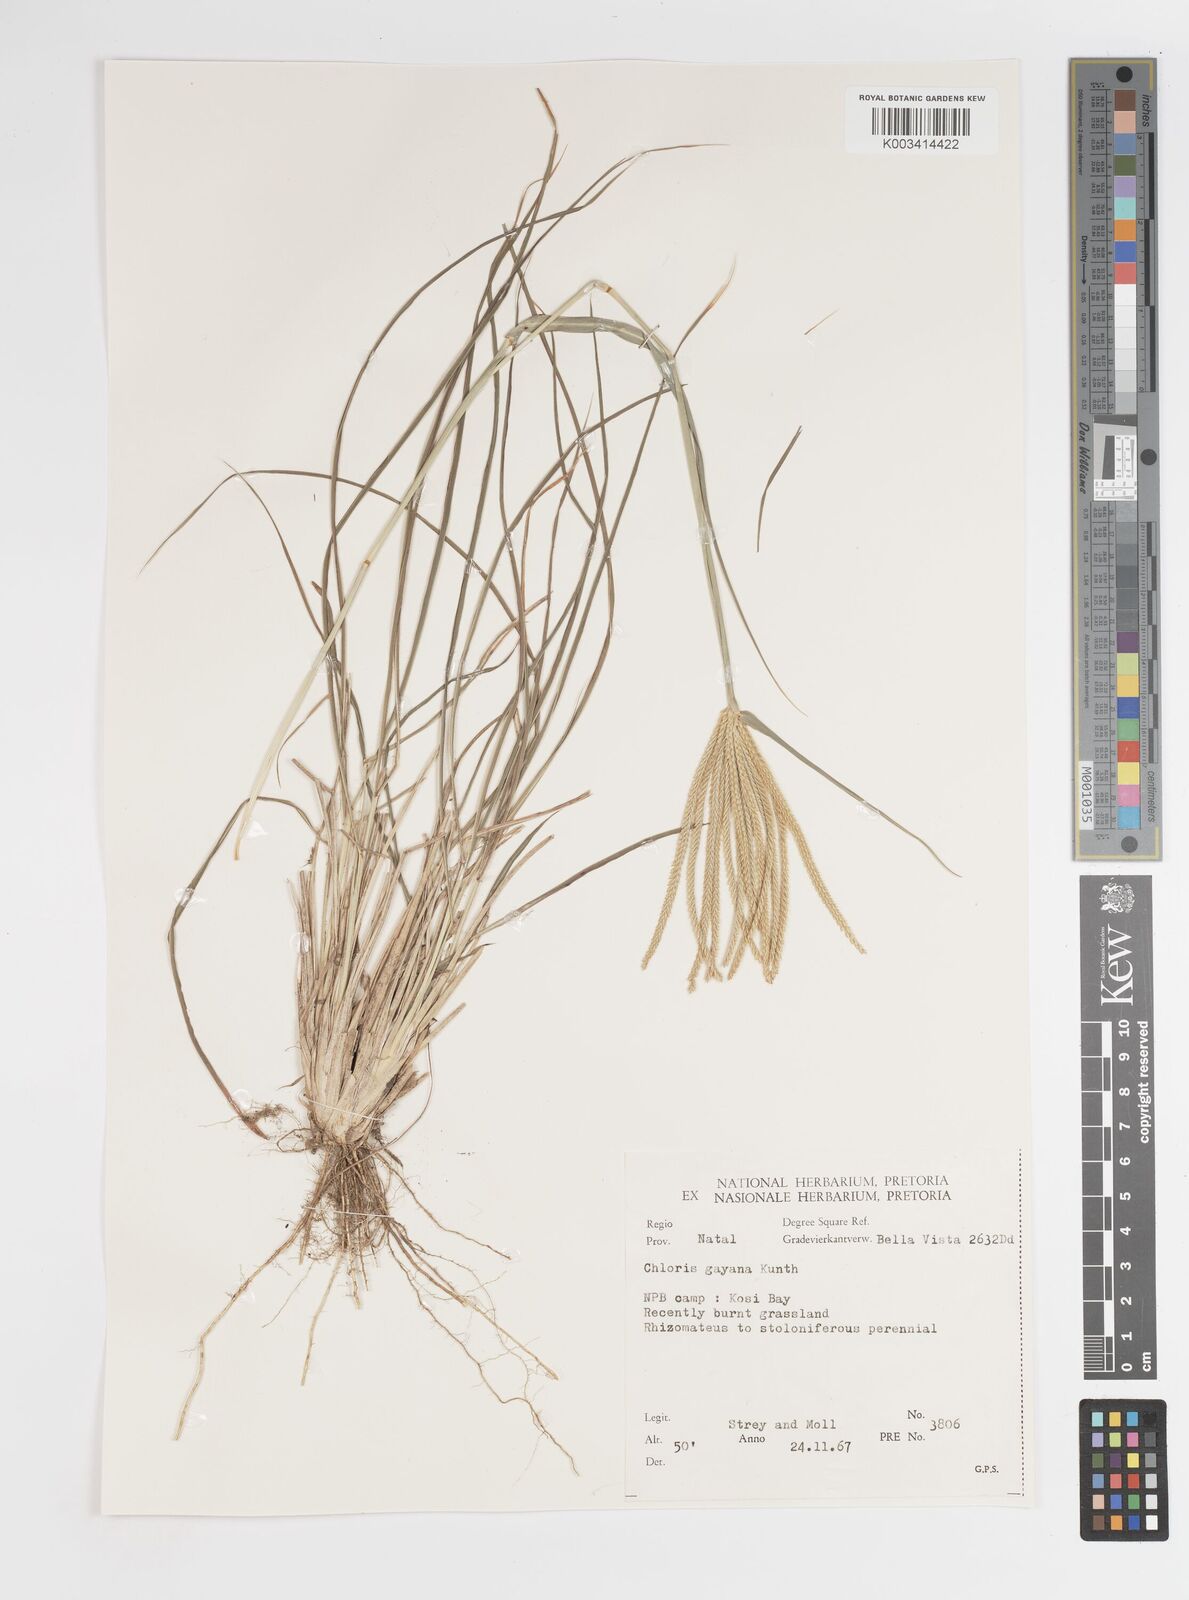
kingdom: Plantae
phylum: Tracheophyta
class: Liliopsida
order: Poales
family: Poaceae
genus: Chloris
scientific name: Chloris gayana
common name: Rhodes grass
